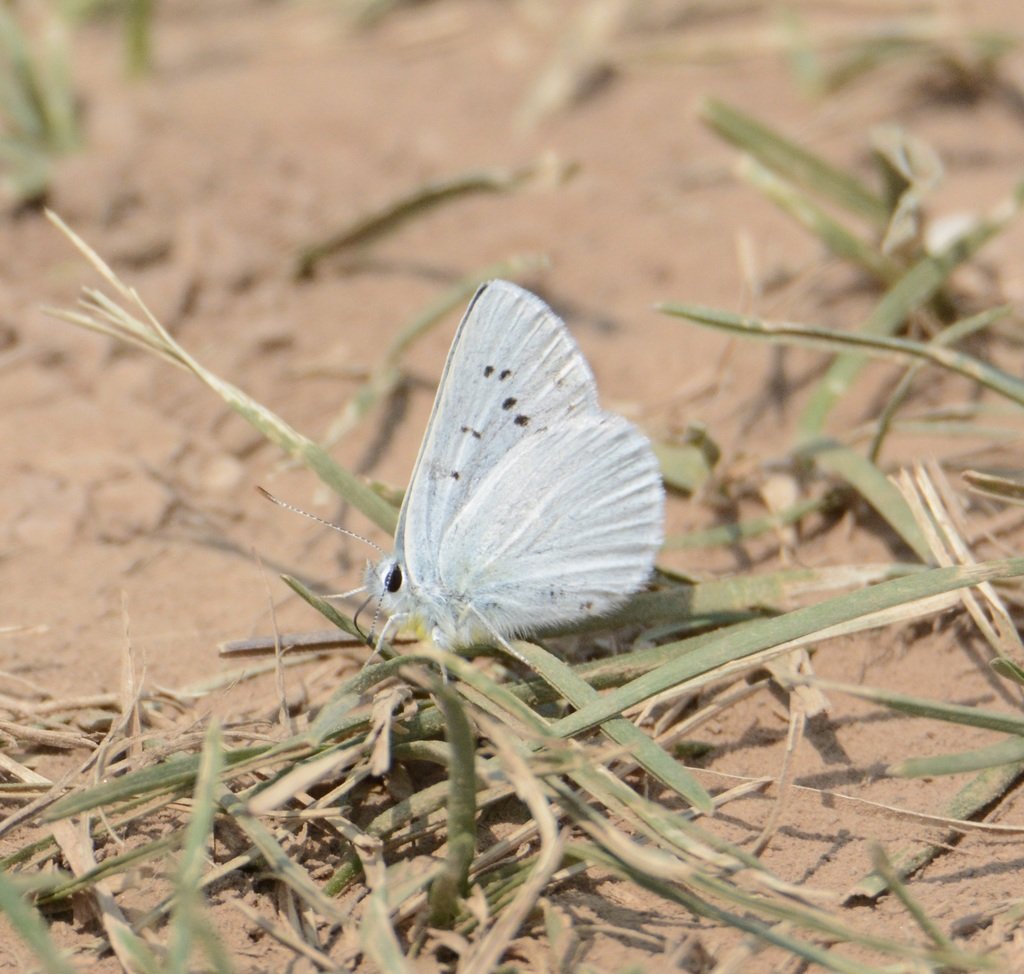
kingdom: Animalia
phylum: Arthropoda
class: Insecta
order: Lepidoptera
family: Lycaenidae
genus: Lycaena
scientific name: Lycaena heteronea
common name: Blue Copper
